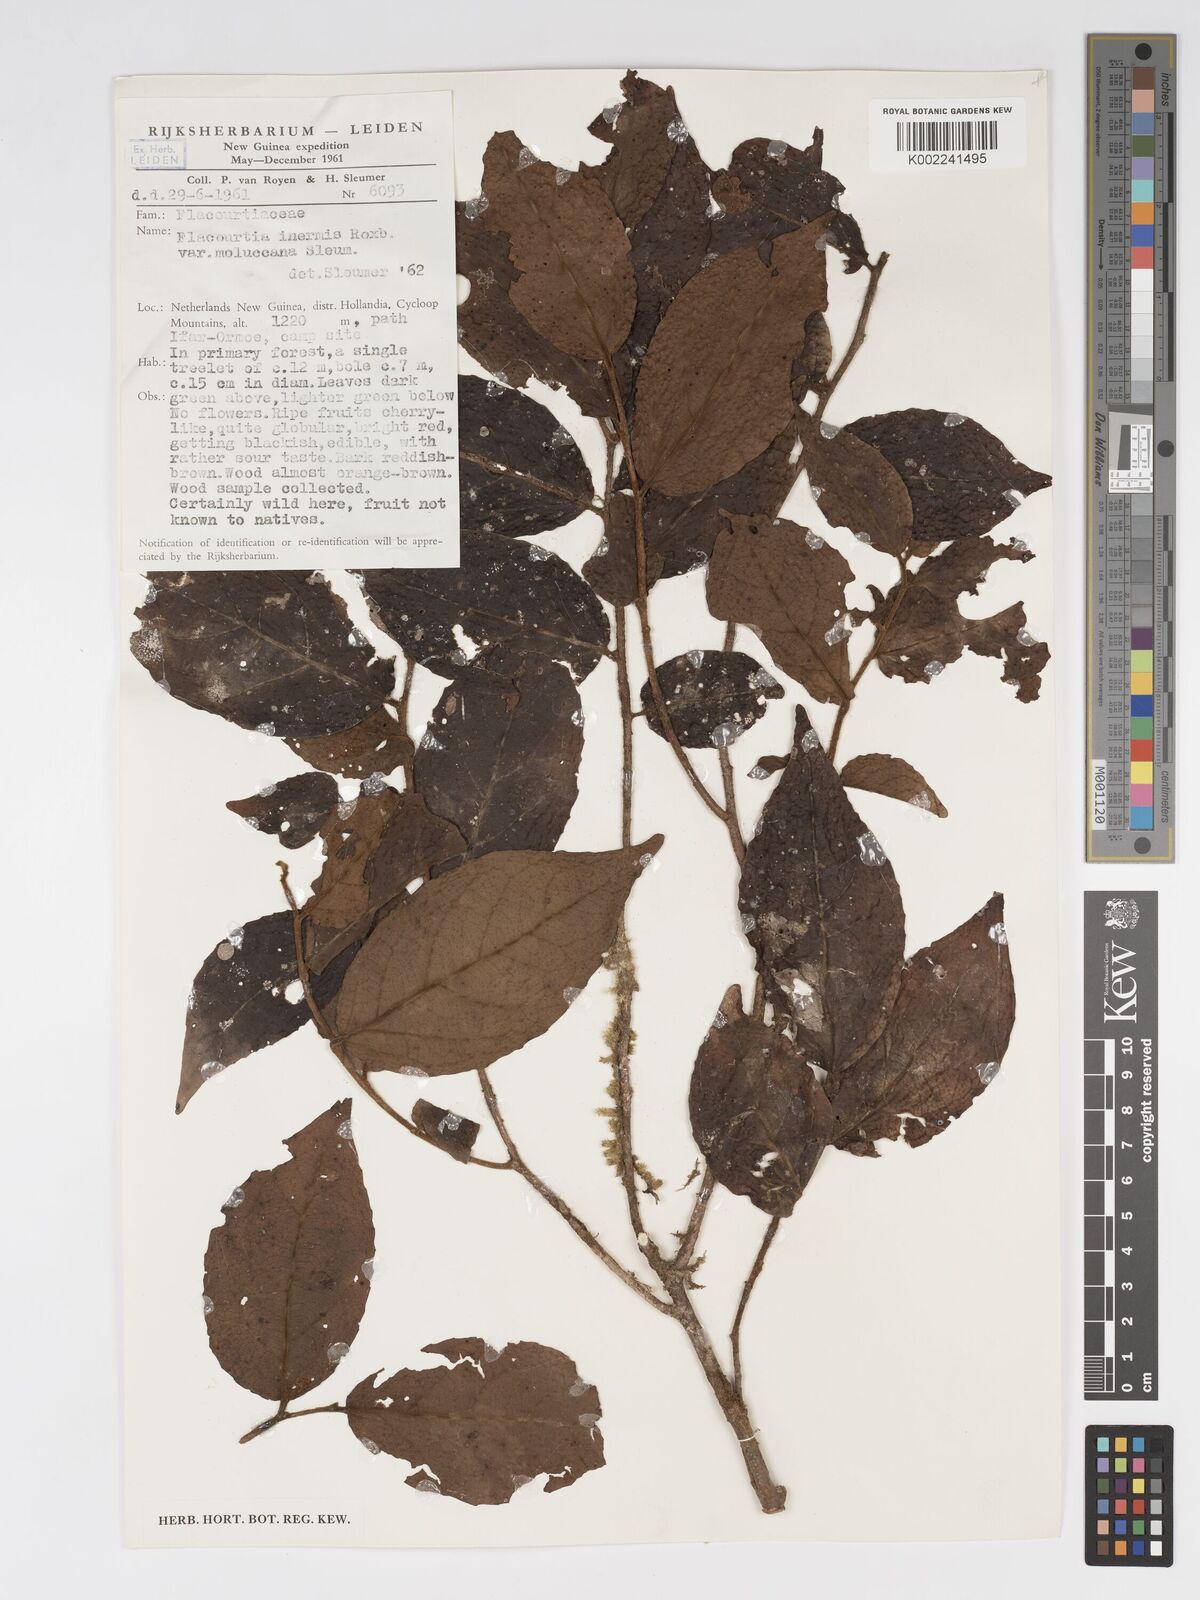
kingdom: Plantae
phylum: Tracheophyta
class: Magnoliopsida
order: Malpighiales
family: Salicaceae
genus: Flacourtia
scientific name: Flacourtia inermis
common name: Plum-of-martinique
